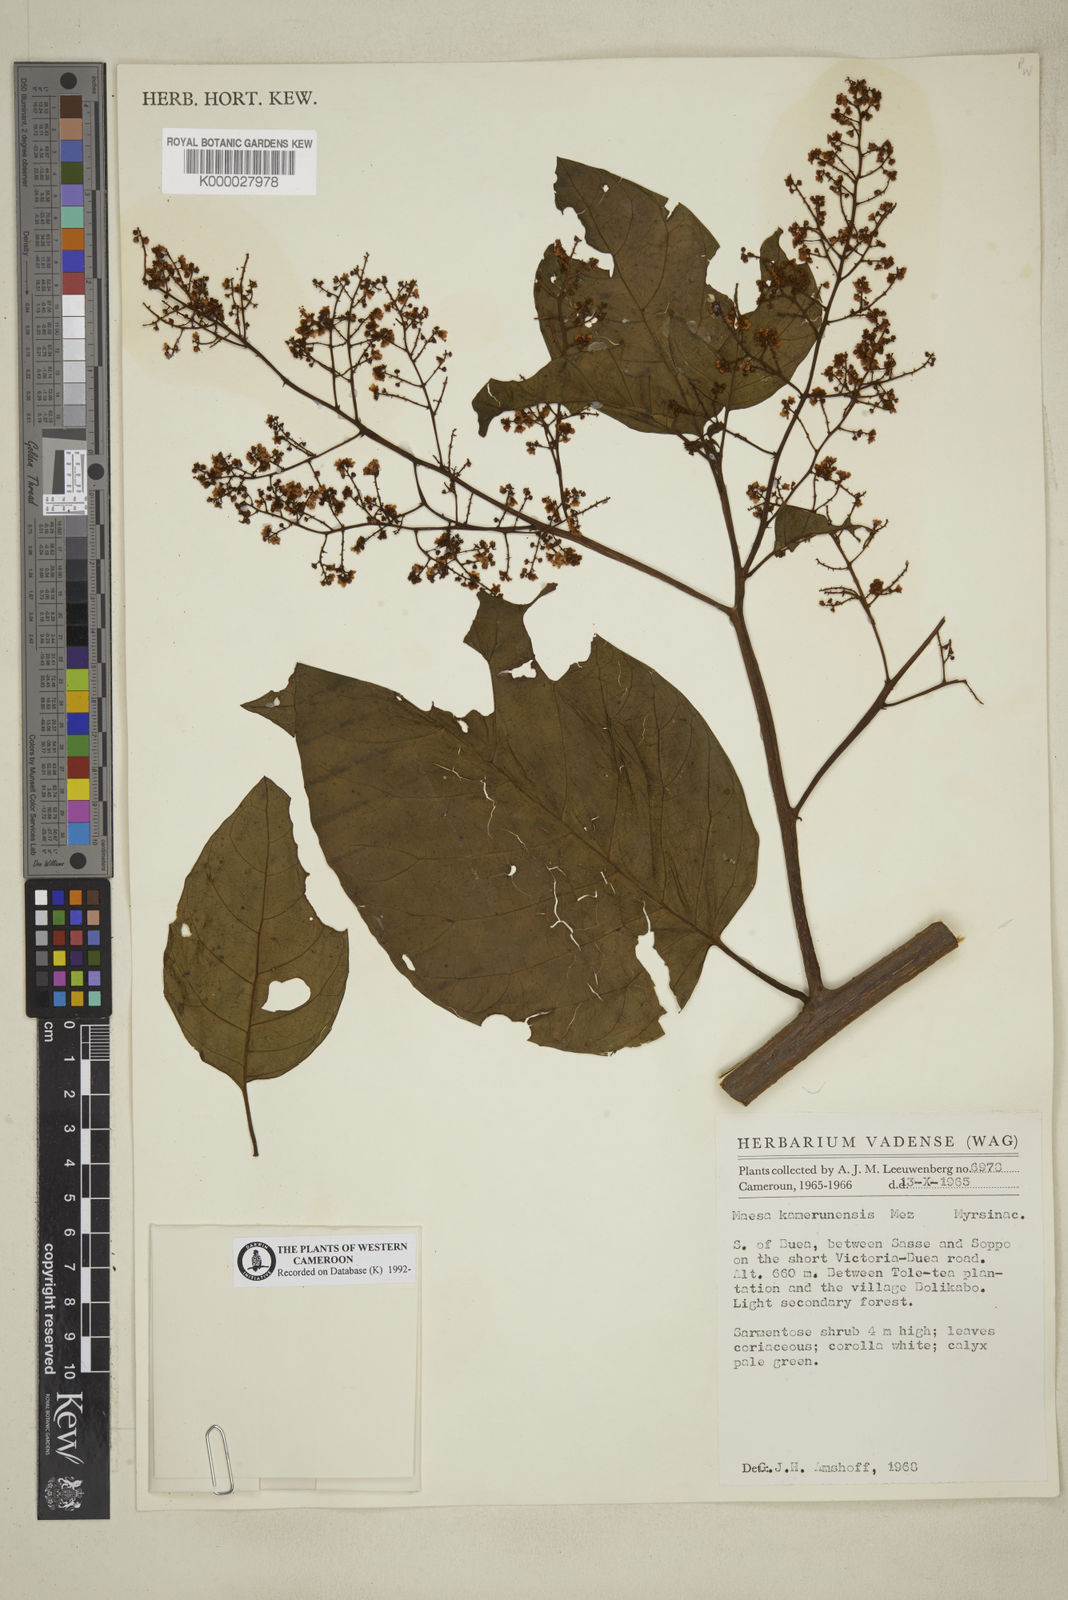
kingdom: Plantae
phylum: Tracheophyta
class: Magnoliopsida
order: Ericales
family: Primulaceae
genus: Maesa
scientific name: Maesa kamerunensis
